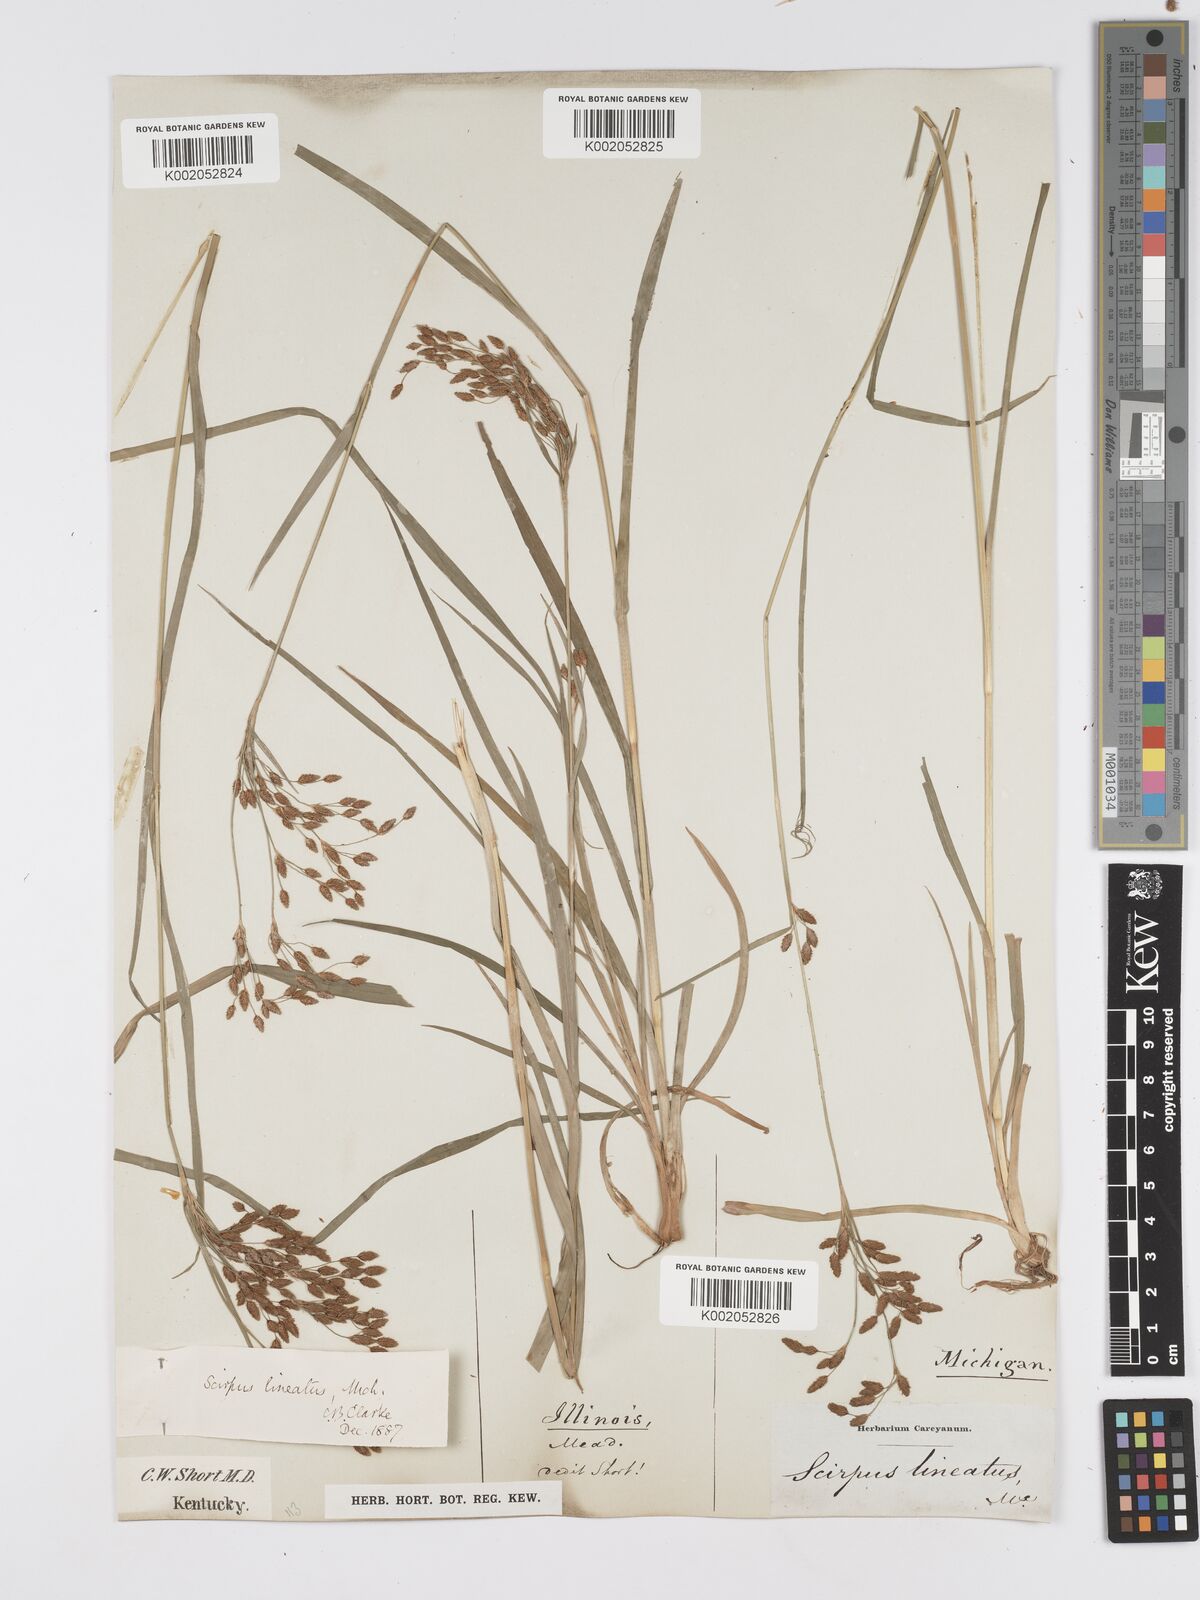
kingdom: Plantae
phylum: Tracheophyta
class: Liliopsida
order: Poales
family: Cyperaceae
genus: Scirpus
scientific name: Scirpus lineatus
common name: Drooping bulrush
